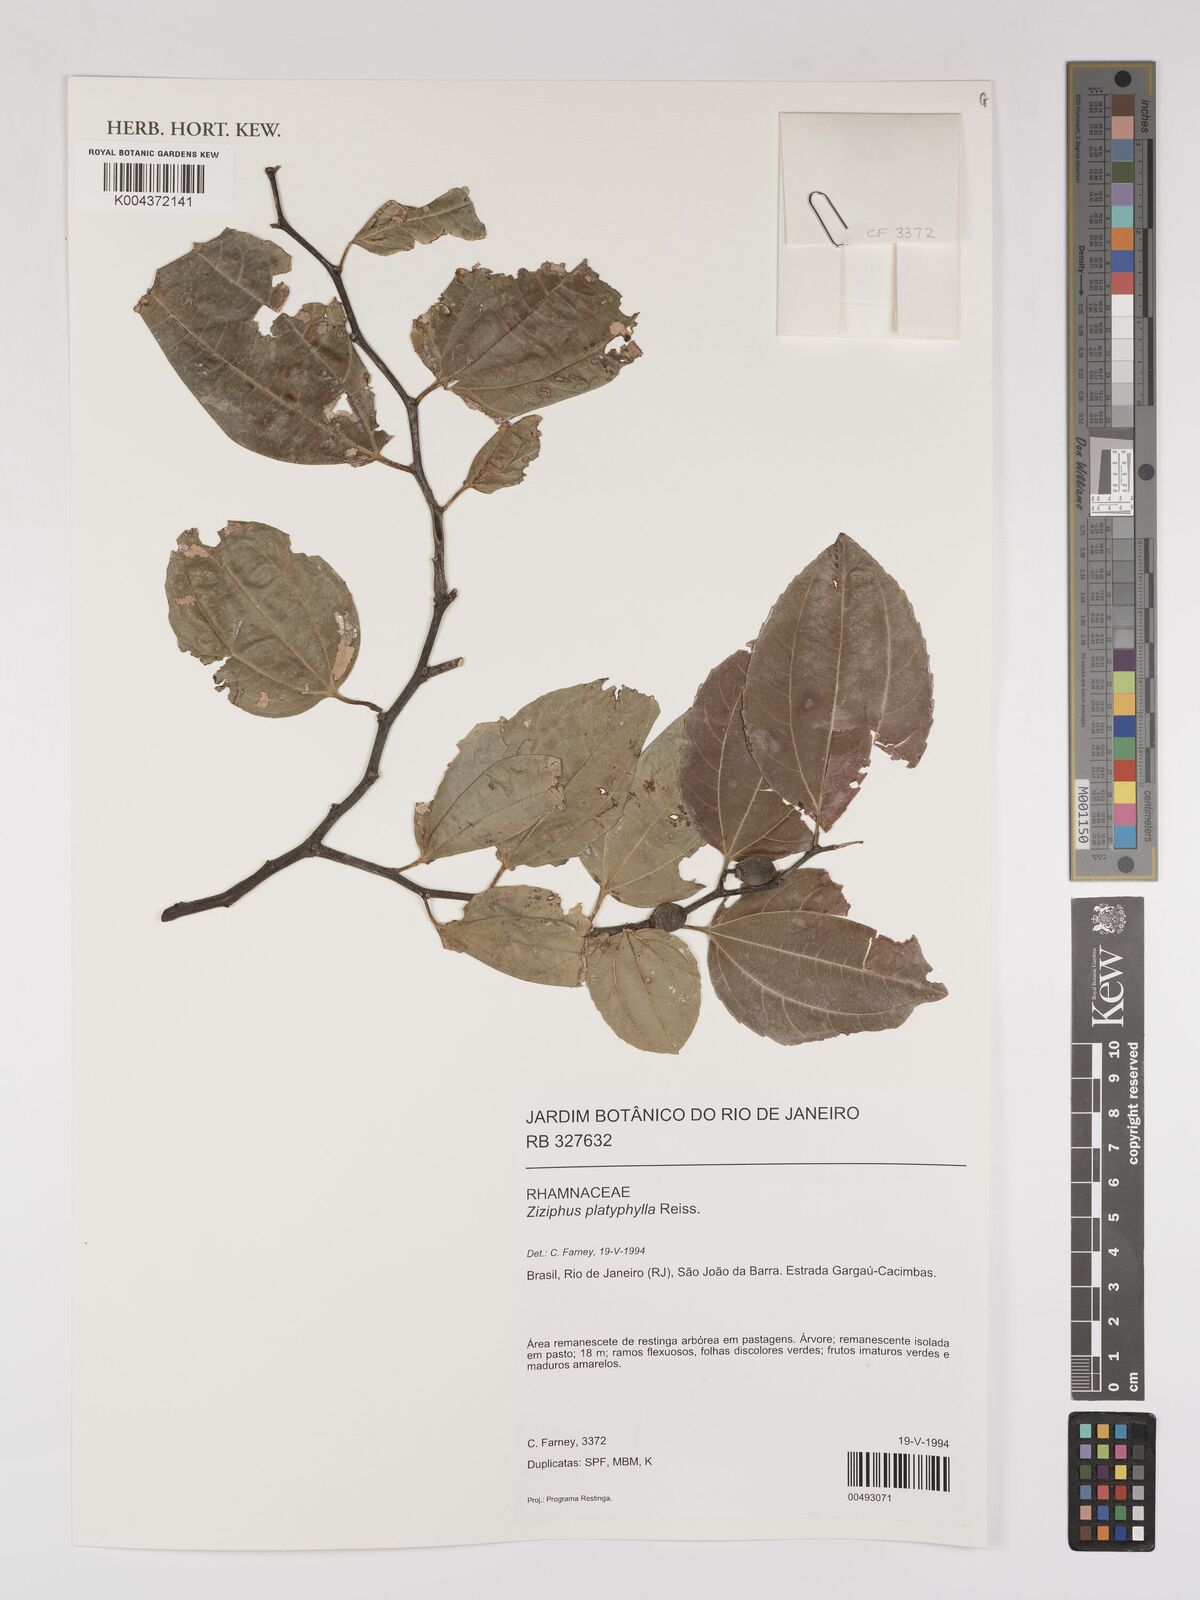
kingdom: Plantae
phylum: Tracheophyta
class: Magnoliopsida
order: Rosales
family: Rhamnaceae
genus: Sarcomphalus
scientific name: Sarcomphalus platyphyllus
